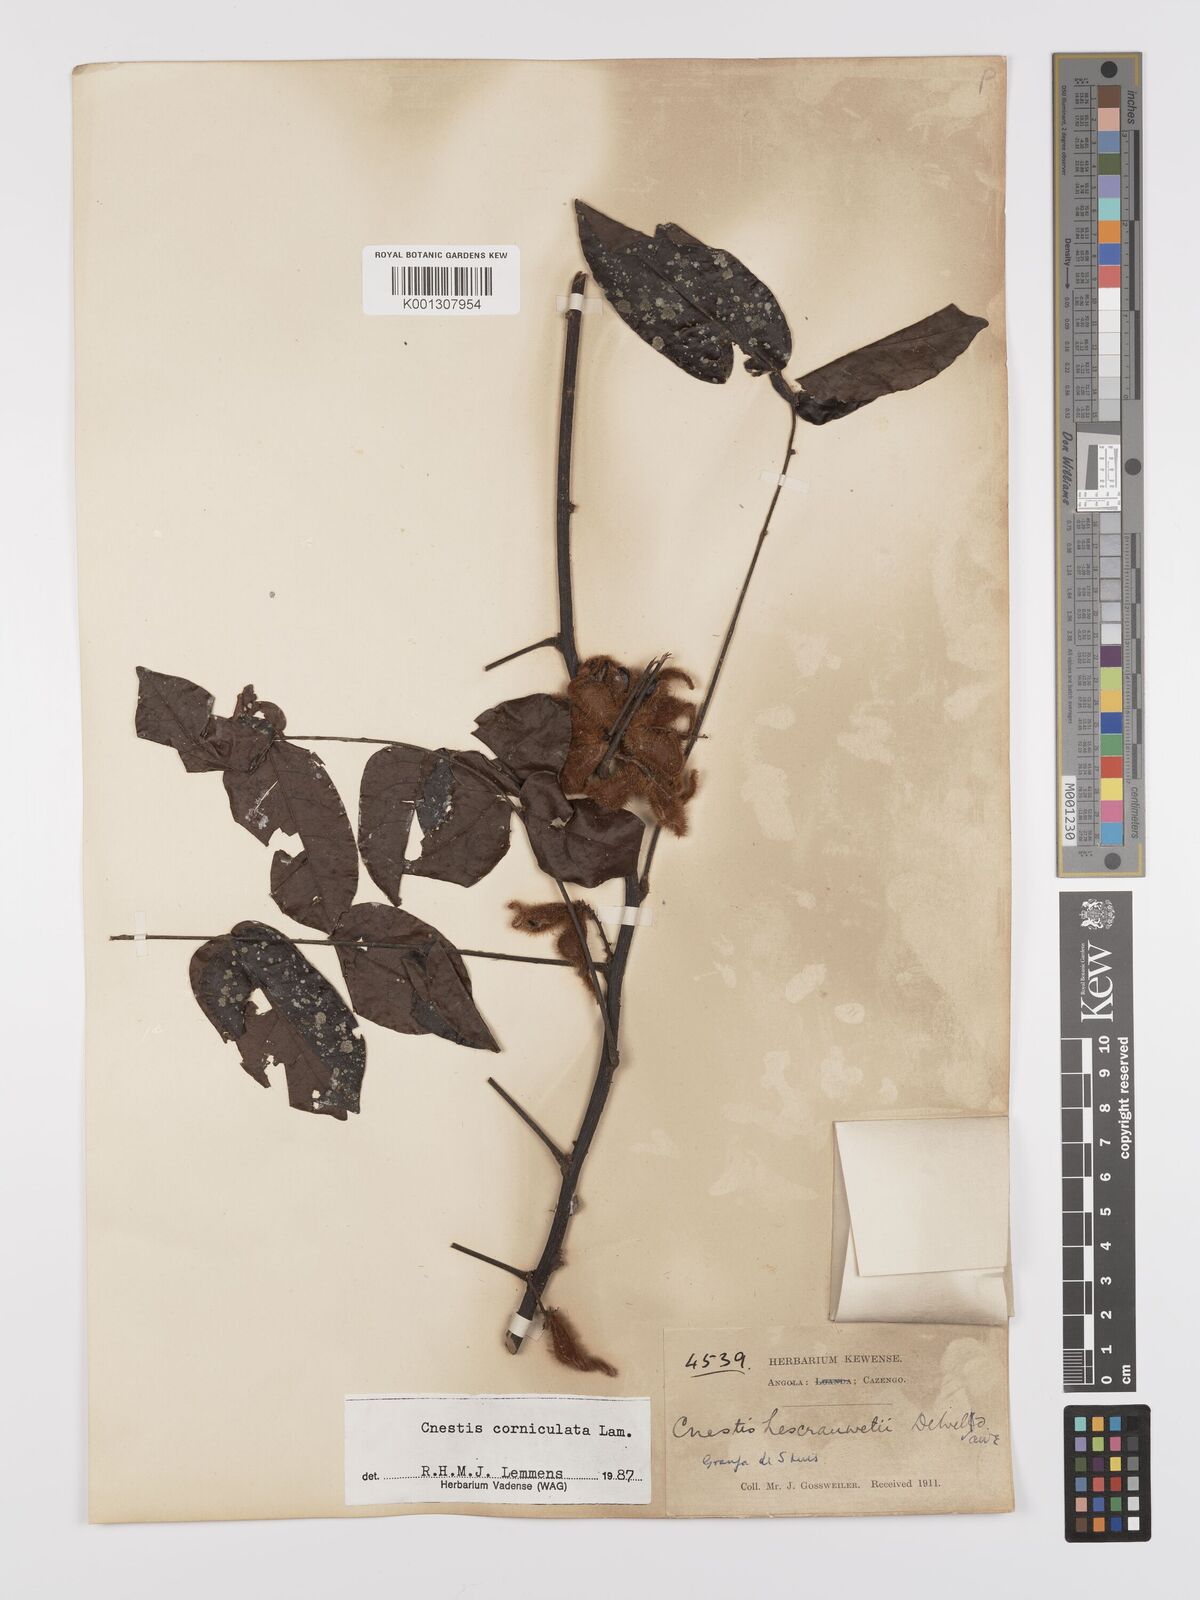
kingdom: Plantae
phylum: Tracheophyta
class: Magnoliopsida
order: Oxalidales
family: Connaraceae
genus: Cnestis
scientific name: Cnestis corniculata
